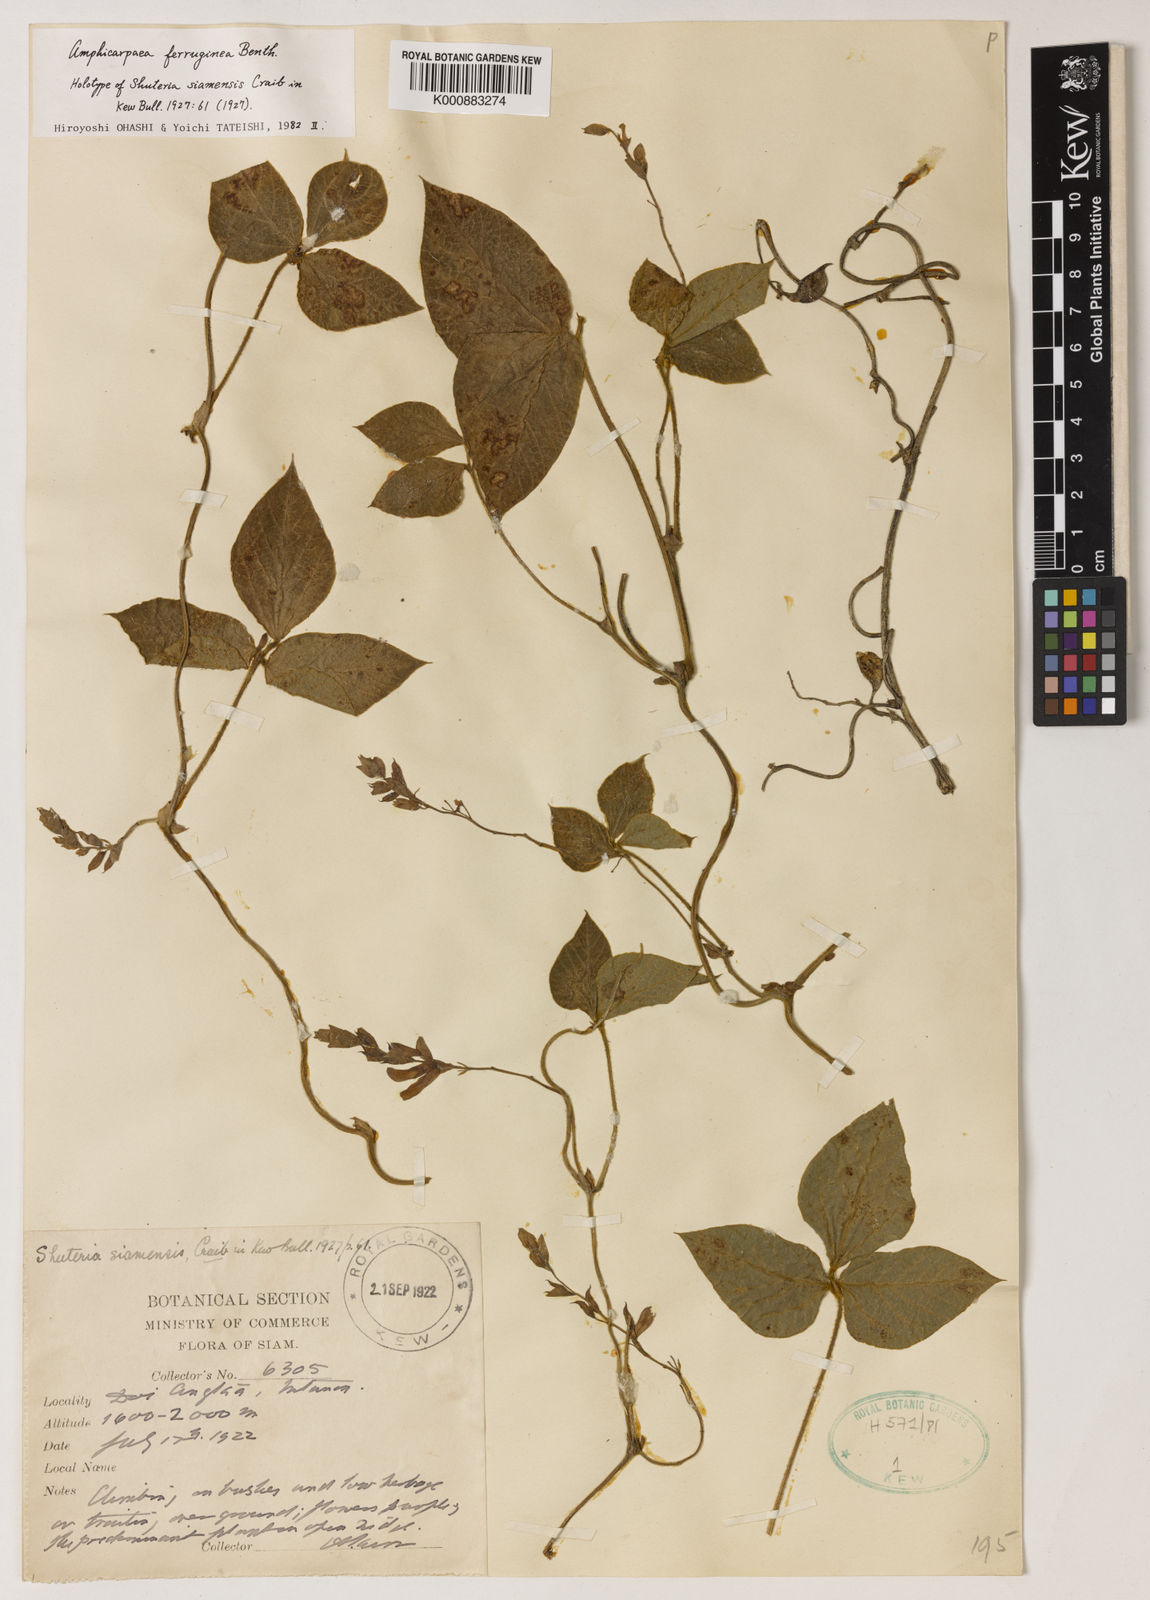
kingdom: Plantae
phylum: Tracheophyta
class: Magnoliopsida
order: Fabales
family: Fabaceae
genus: Amphicarpaea
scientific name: Amphicarpaea ferruginea
